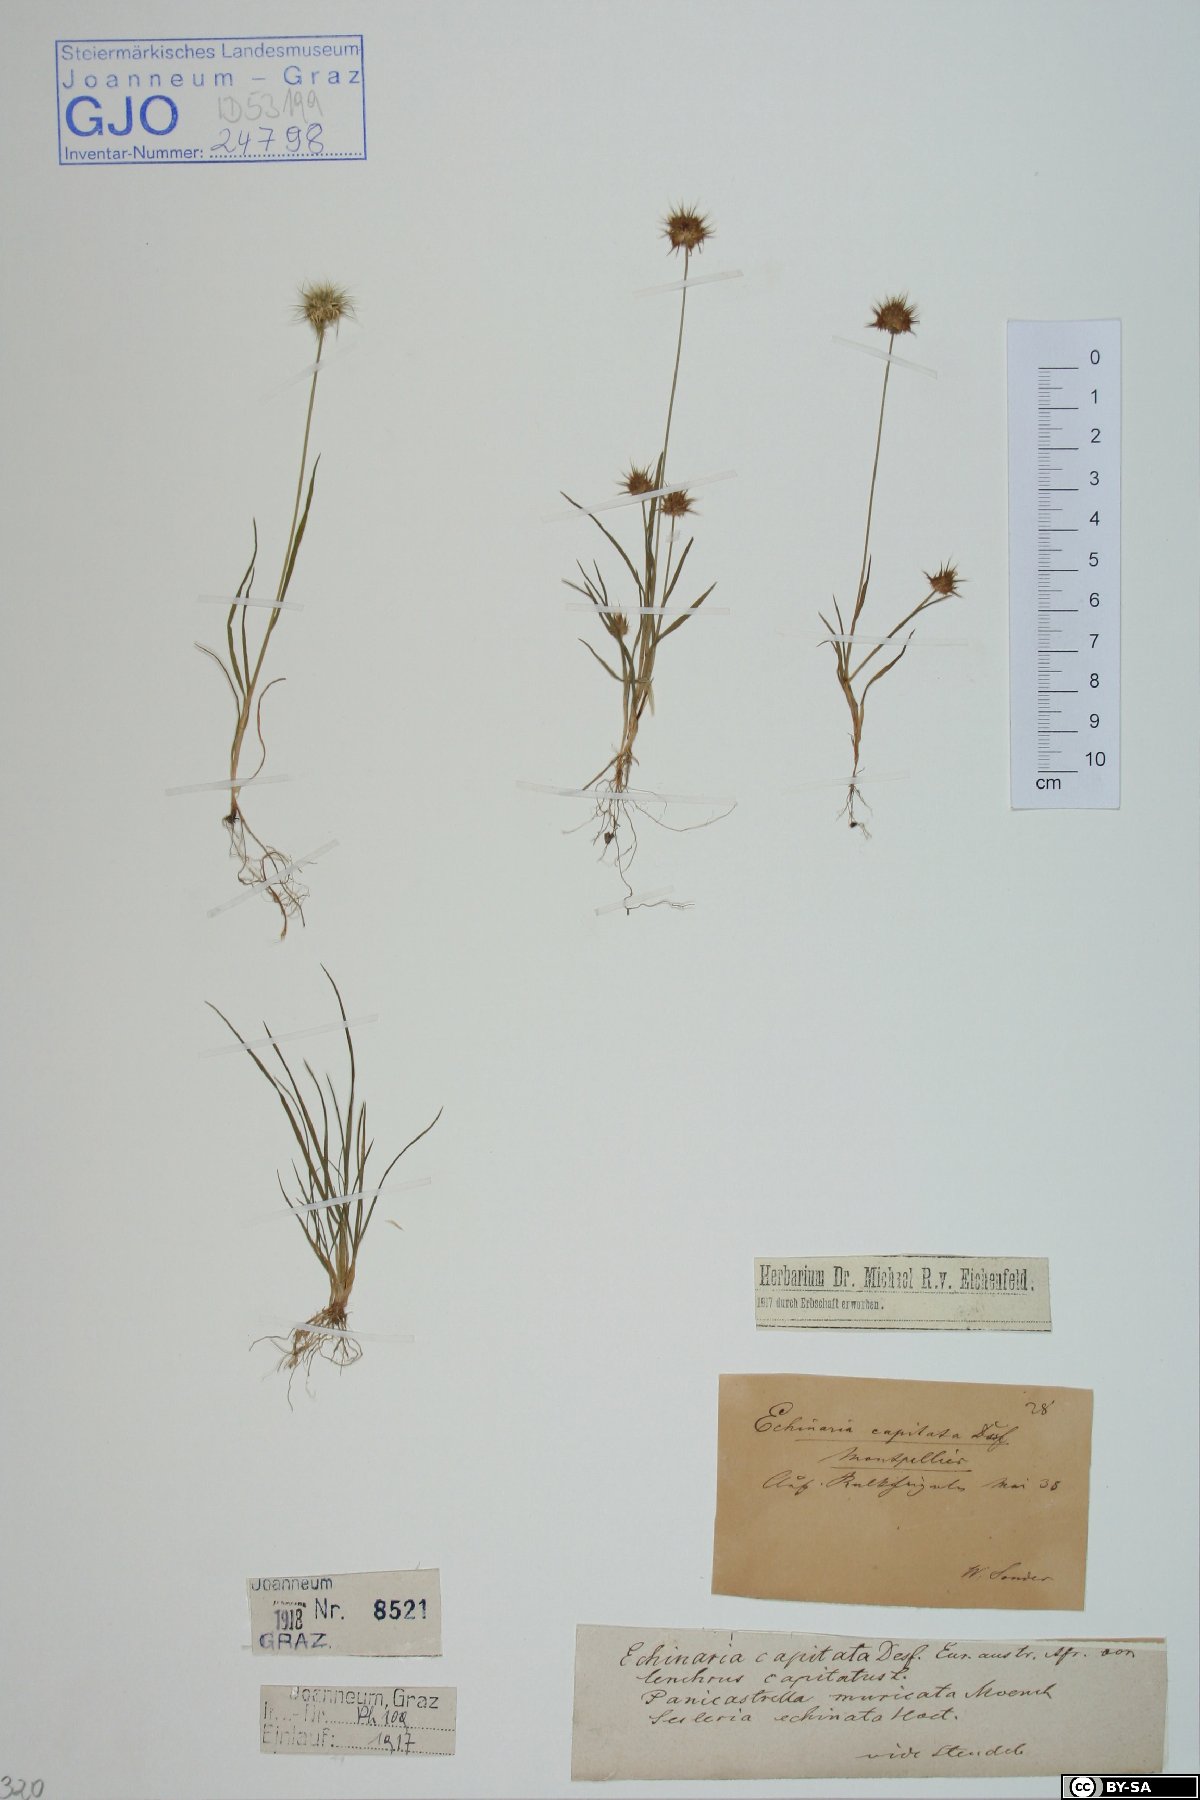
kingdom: Plantae
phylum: Tracheophyta
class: Liliopsida
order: Poales
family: Poaceae
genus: Echinaria
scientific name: Echinaria capitata
